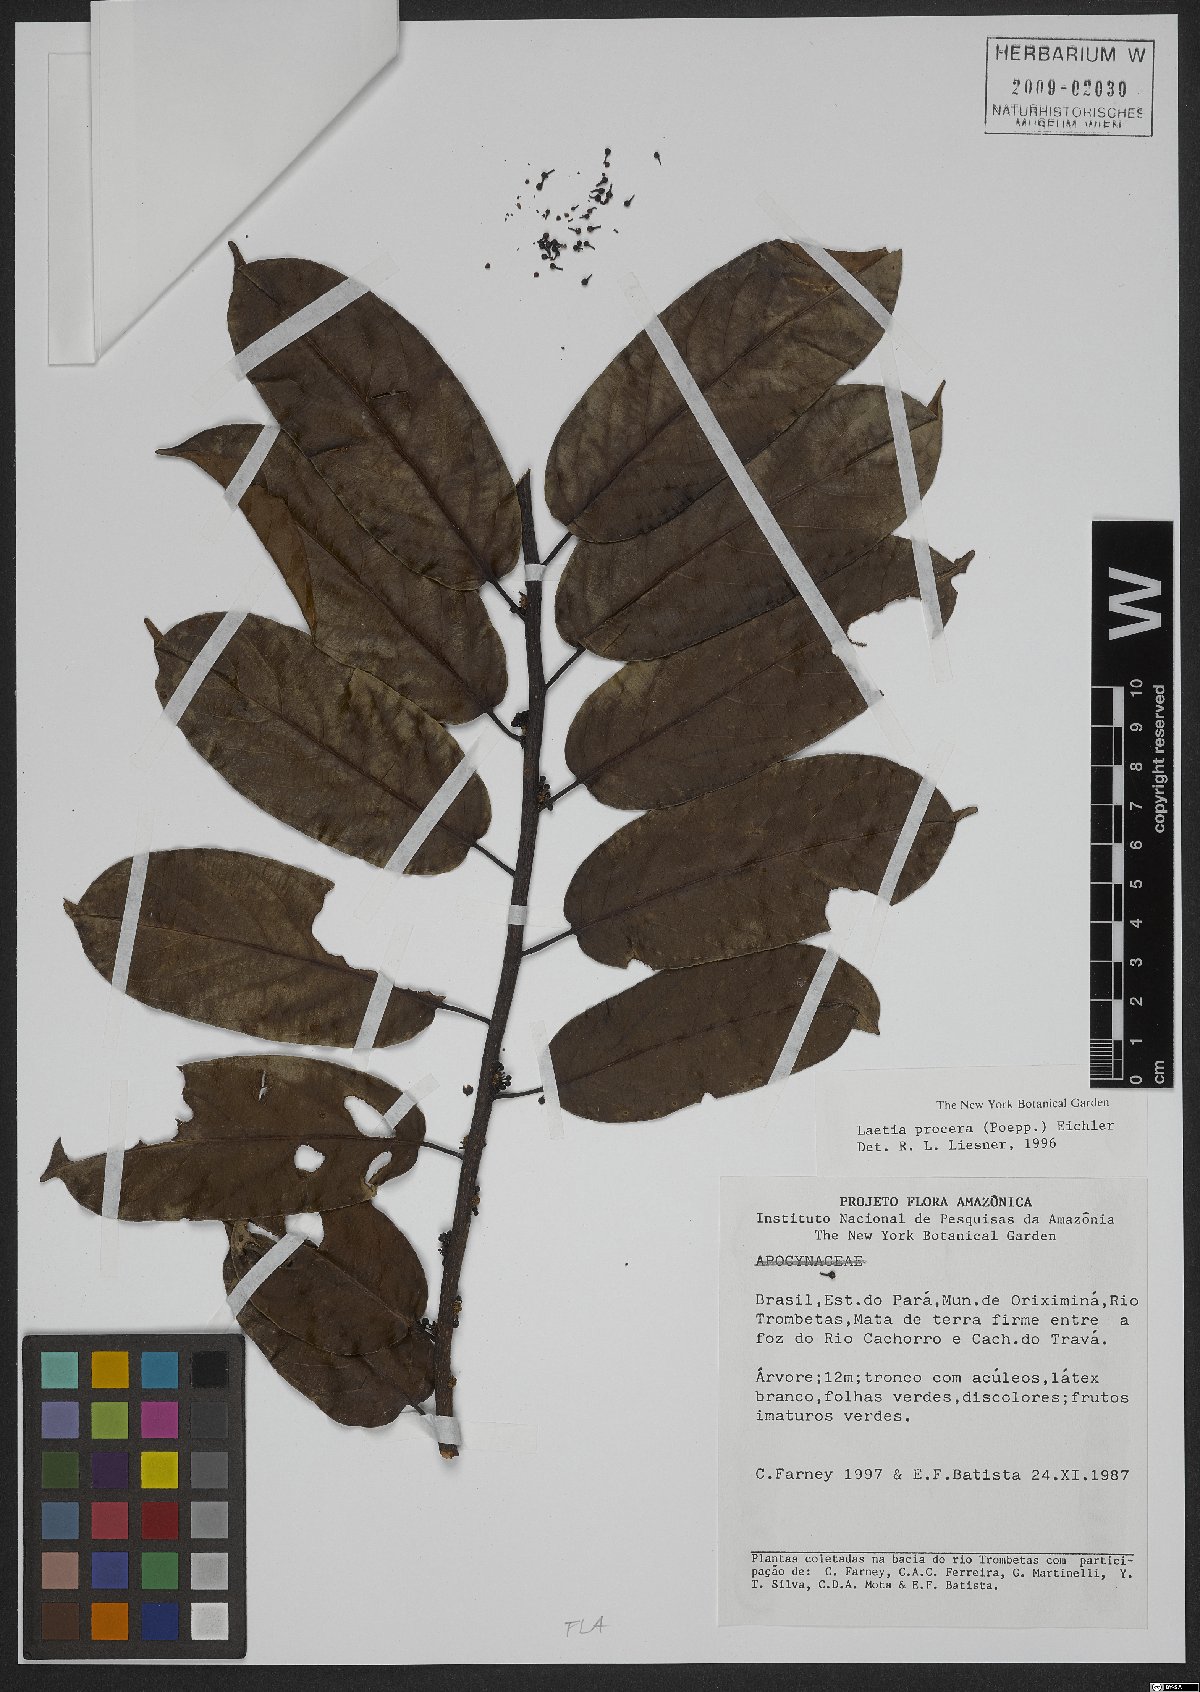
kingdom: Plantae
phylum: Tracheophyta
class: Magnoliopsida
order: Malpighiales
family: Salicaceae
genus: Casearia
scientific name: Casearia bicolor
